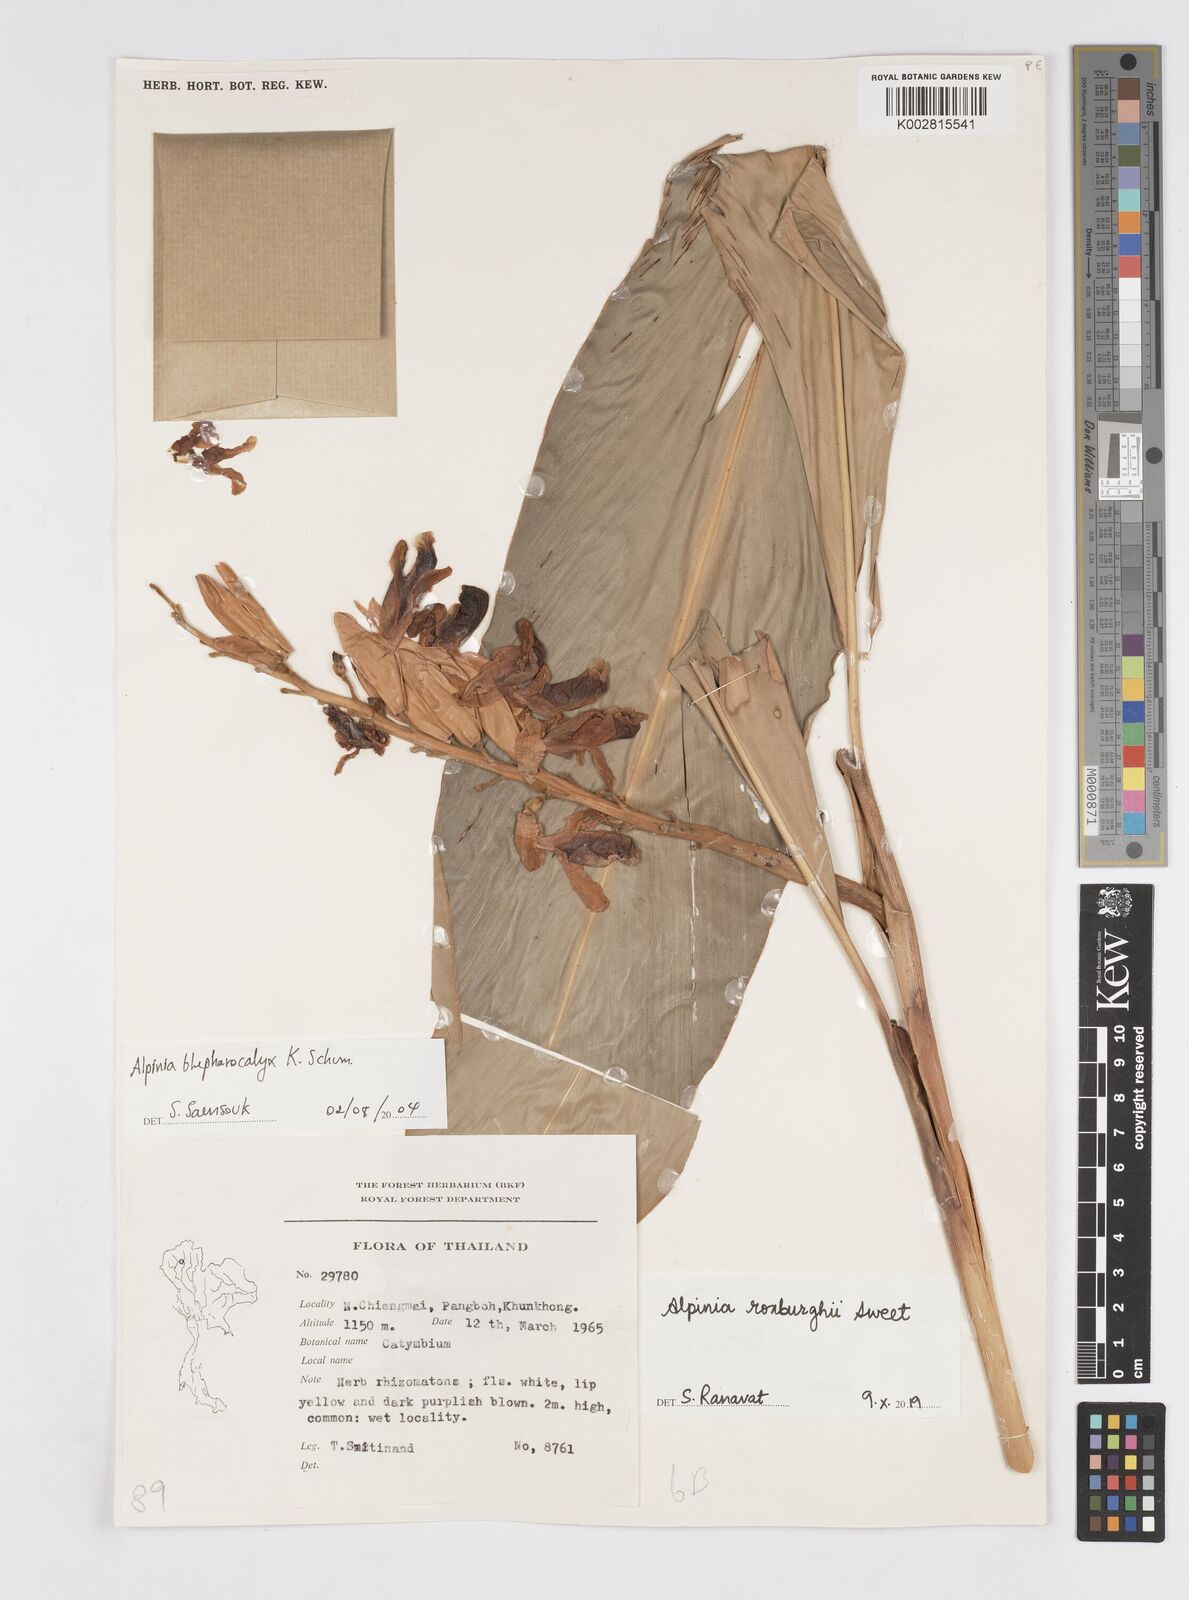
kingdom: Plantae
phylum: Tracheophyta
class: Liliopsida
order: Zingiberales
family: Zingiberaceae
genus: Alpinia
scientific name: Alpinia roxburghii
